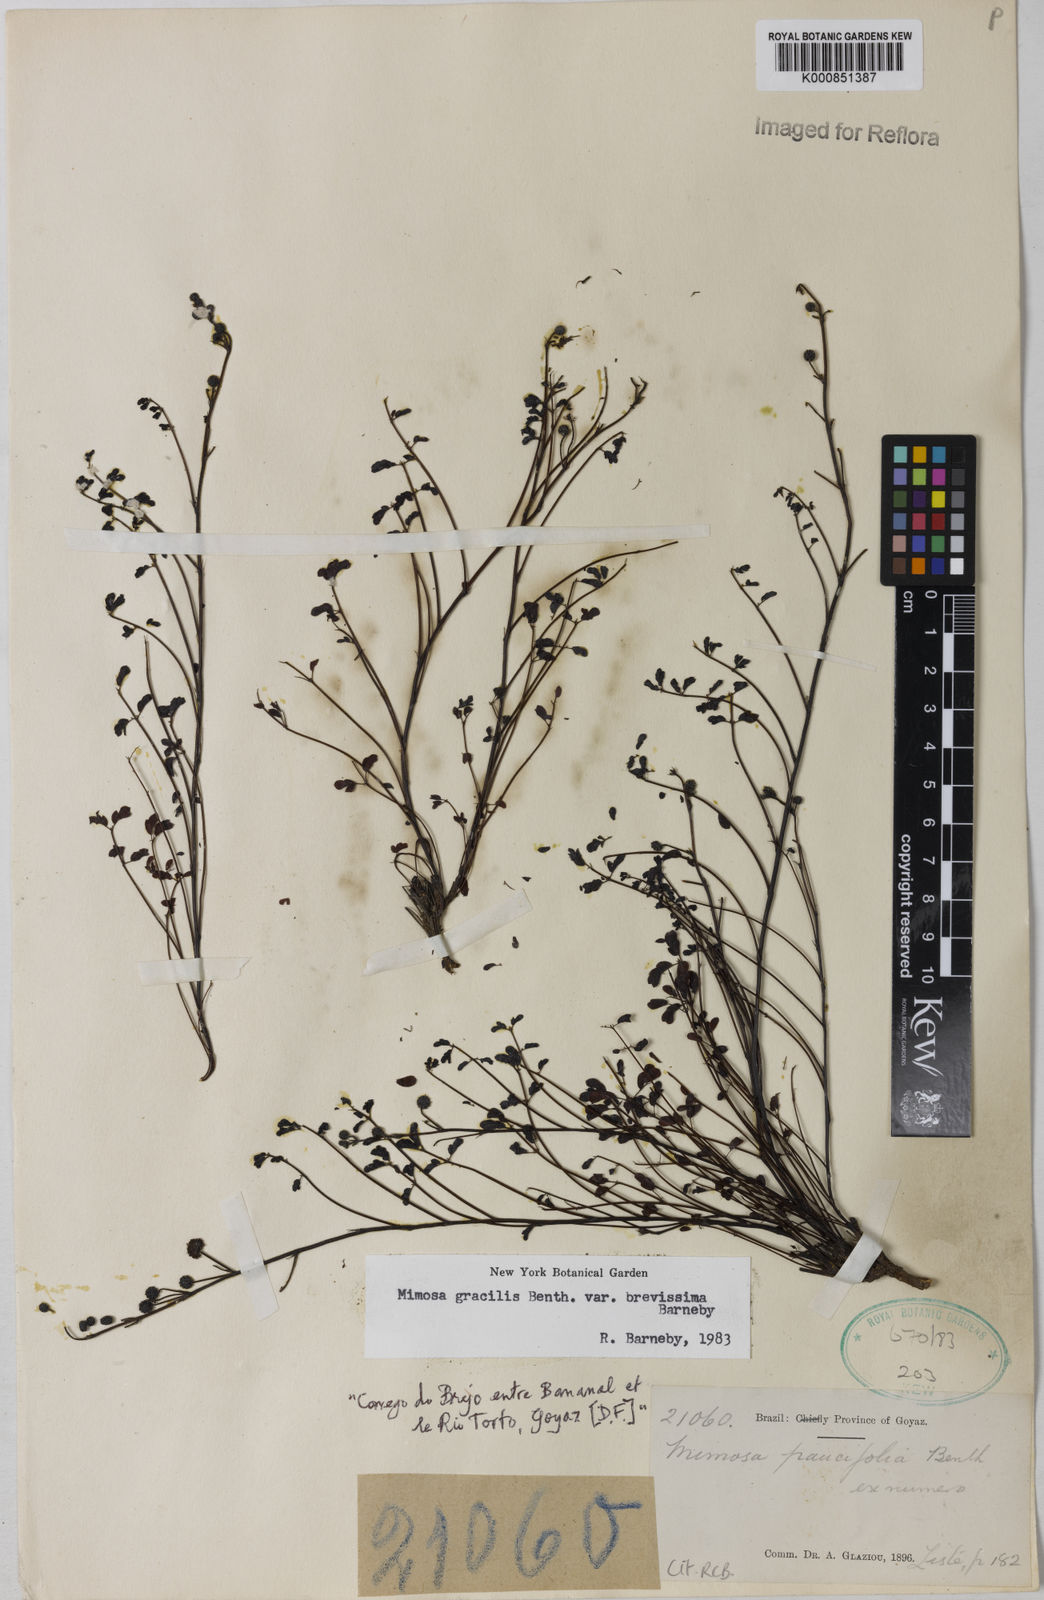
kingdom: Plantae
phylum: Tracheophyta
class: Magnoliopsida
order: Fabales
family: Fabaceae
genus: Mimosa
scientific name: Mimosa gracilis
